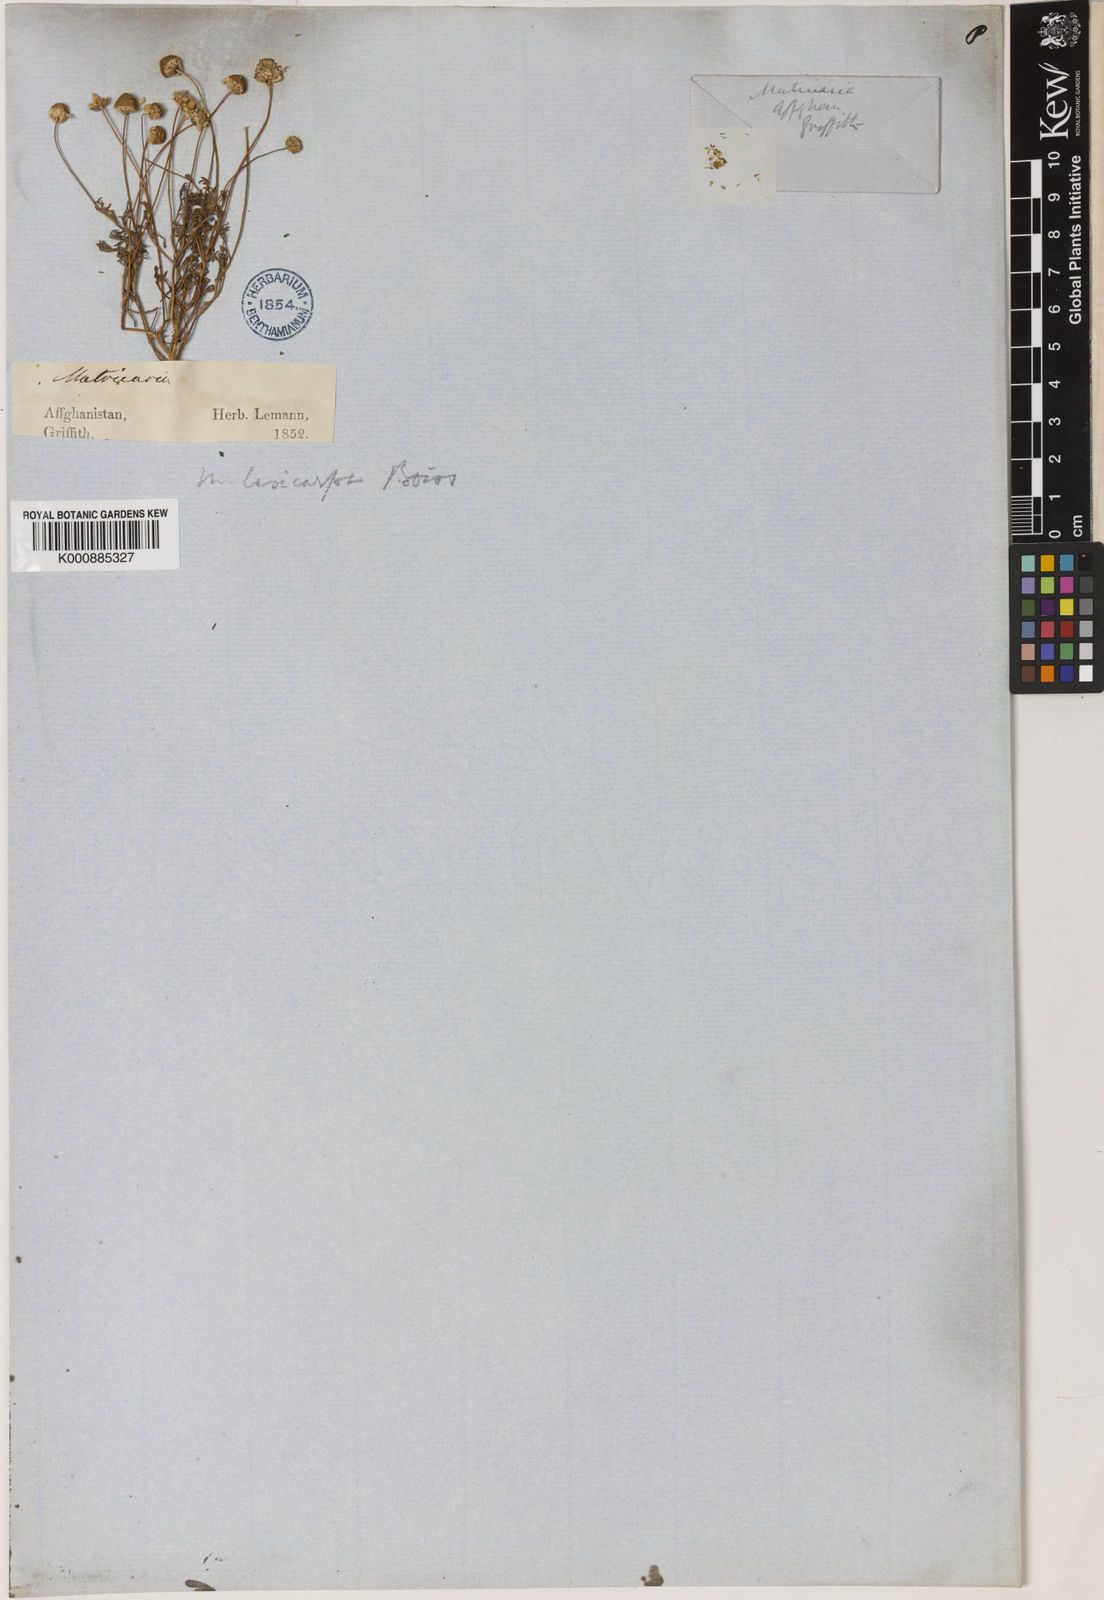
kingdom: Plantae
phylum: Tracheophyta
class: Magnoliopsida
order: Asterales
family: Asteraceae
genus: Microcephala
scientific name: Microcephala lamellata
